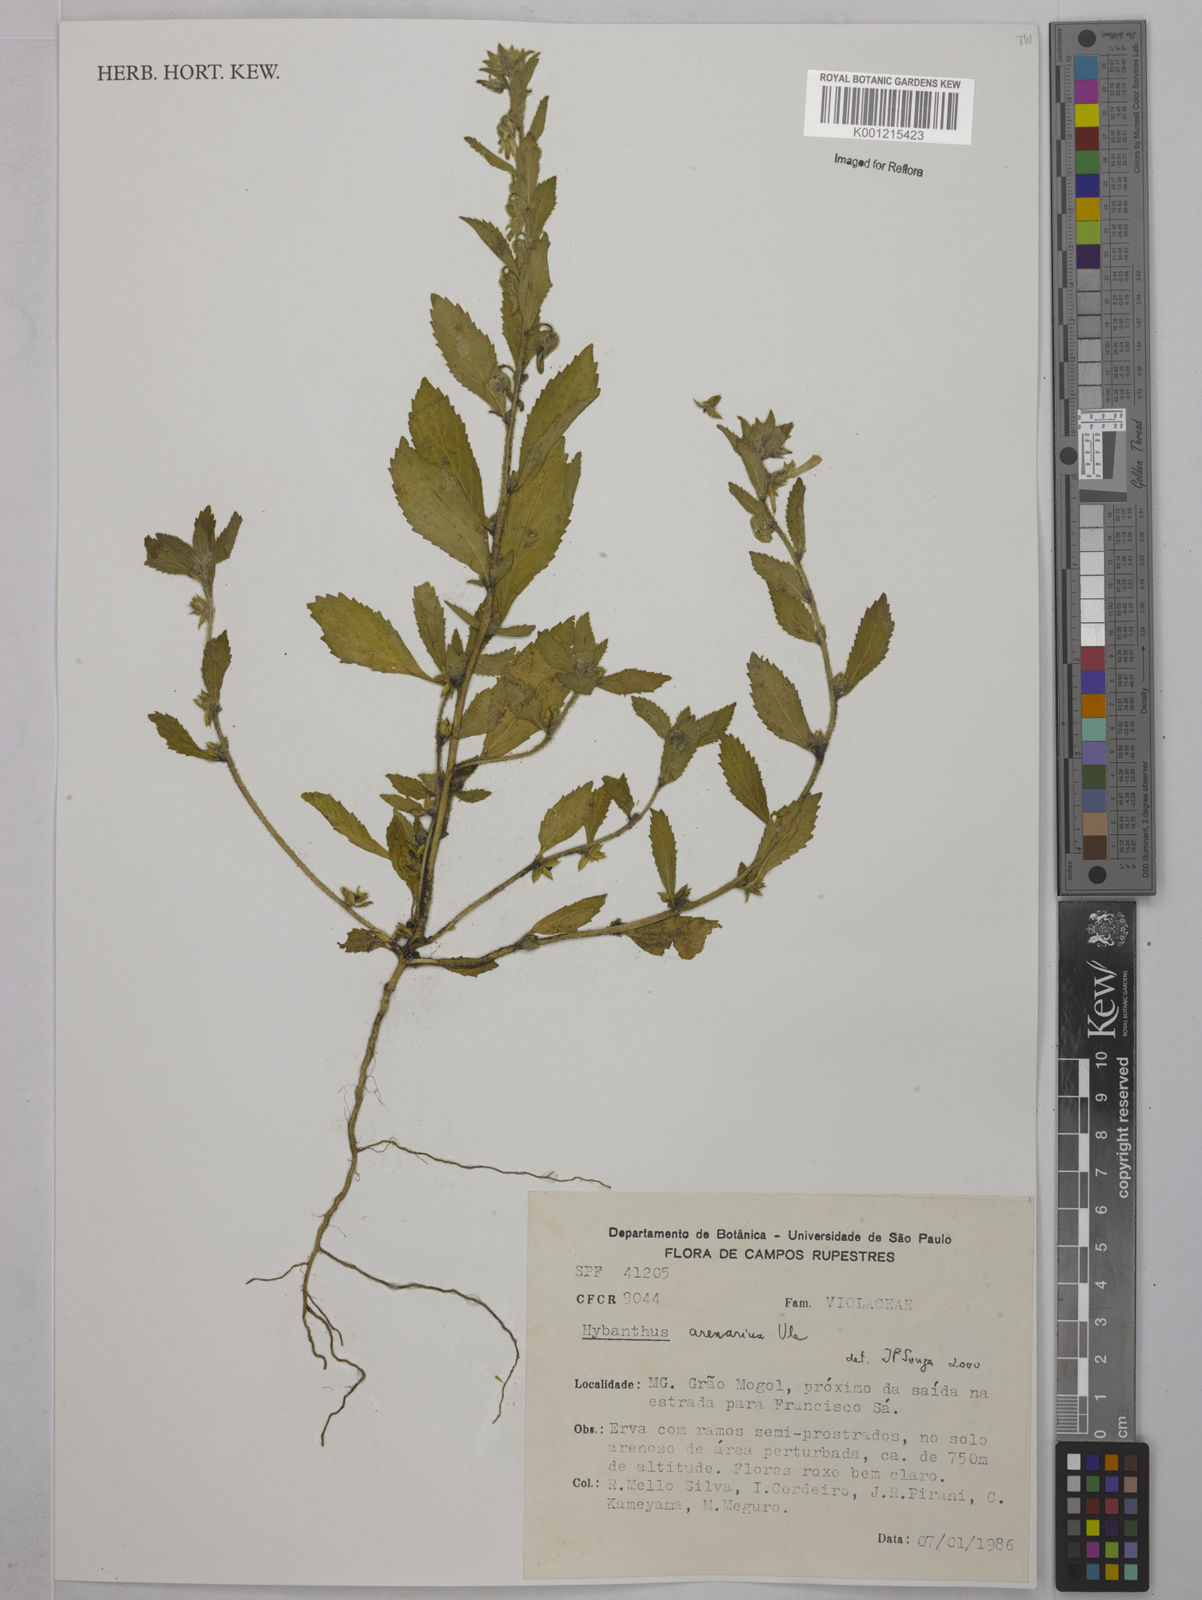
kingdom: Plantae
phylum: Tracheophyta
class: Magnoliopsida
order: Malpighiales
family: Violaceae
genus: Pombalia
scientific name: Pombalia arenaria
